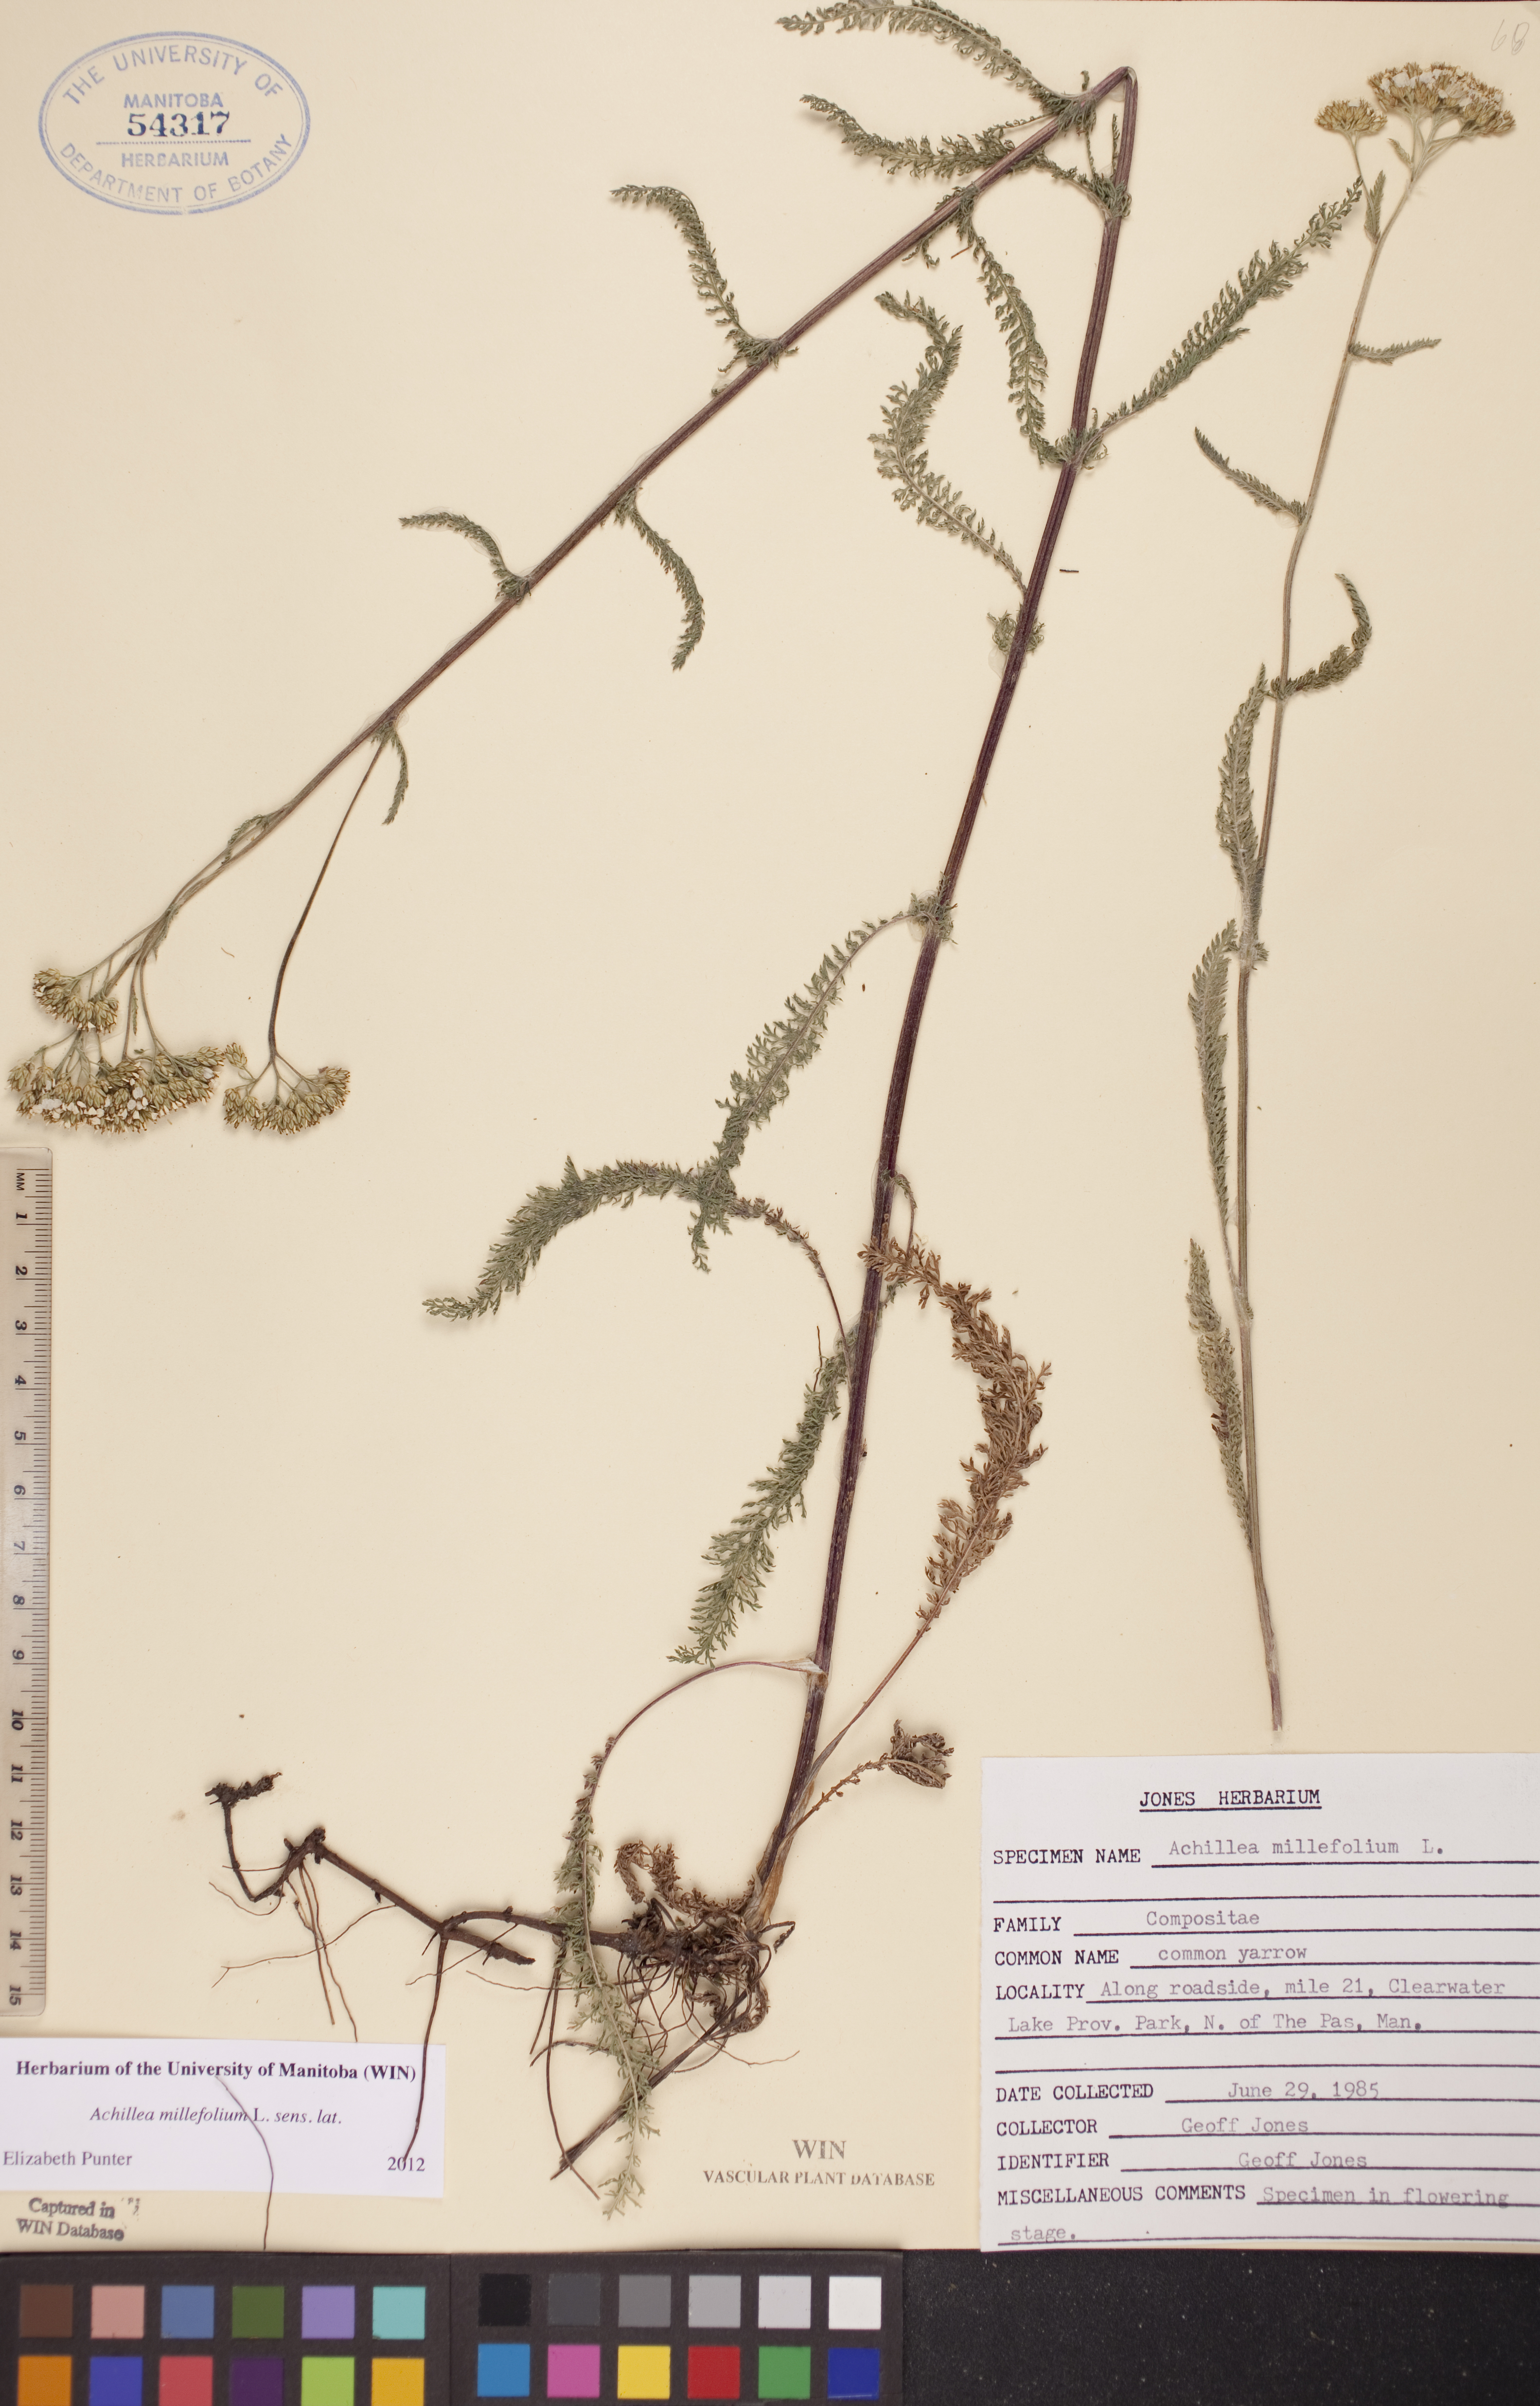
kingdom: Plantae
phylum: Tracheophyta
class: Magnoliopsida
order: Asterales
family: Asteraceae
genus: Achillea
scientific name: Achillea millefolium
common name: Yarrow
